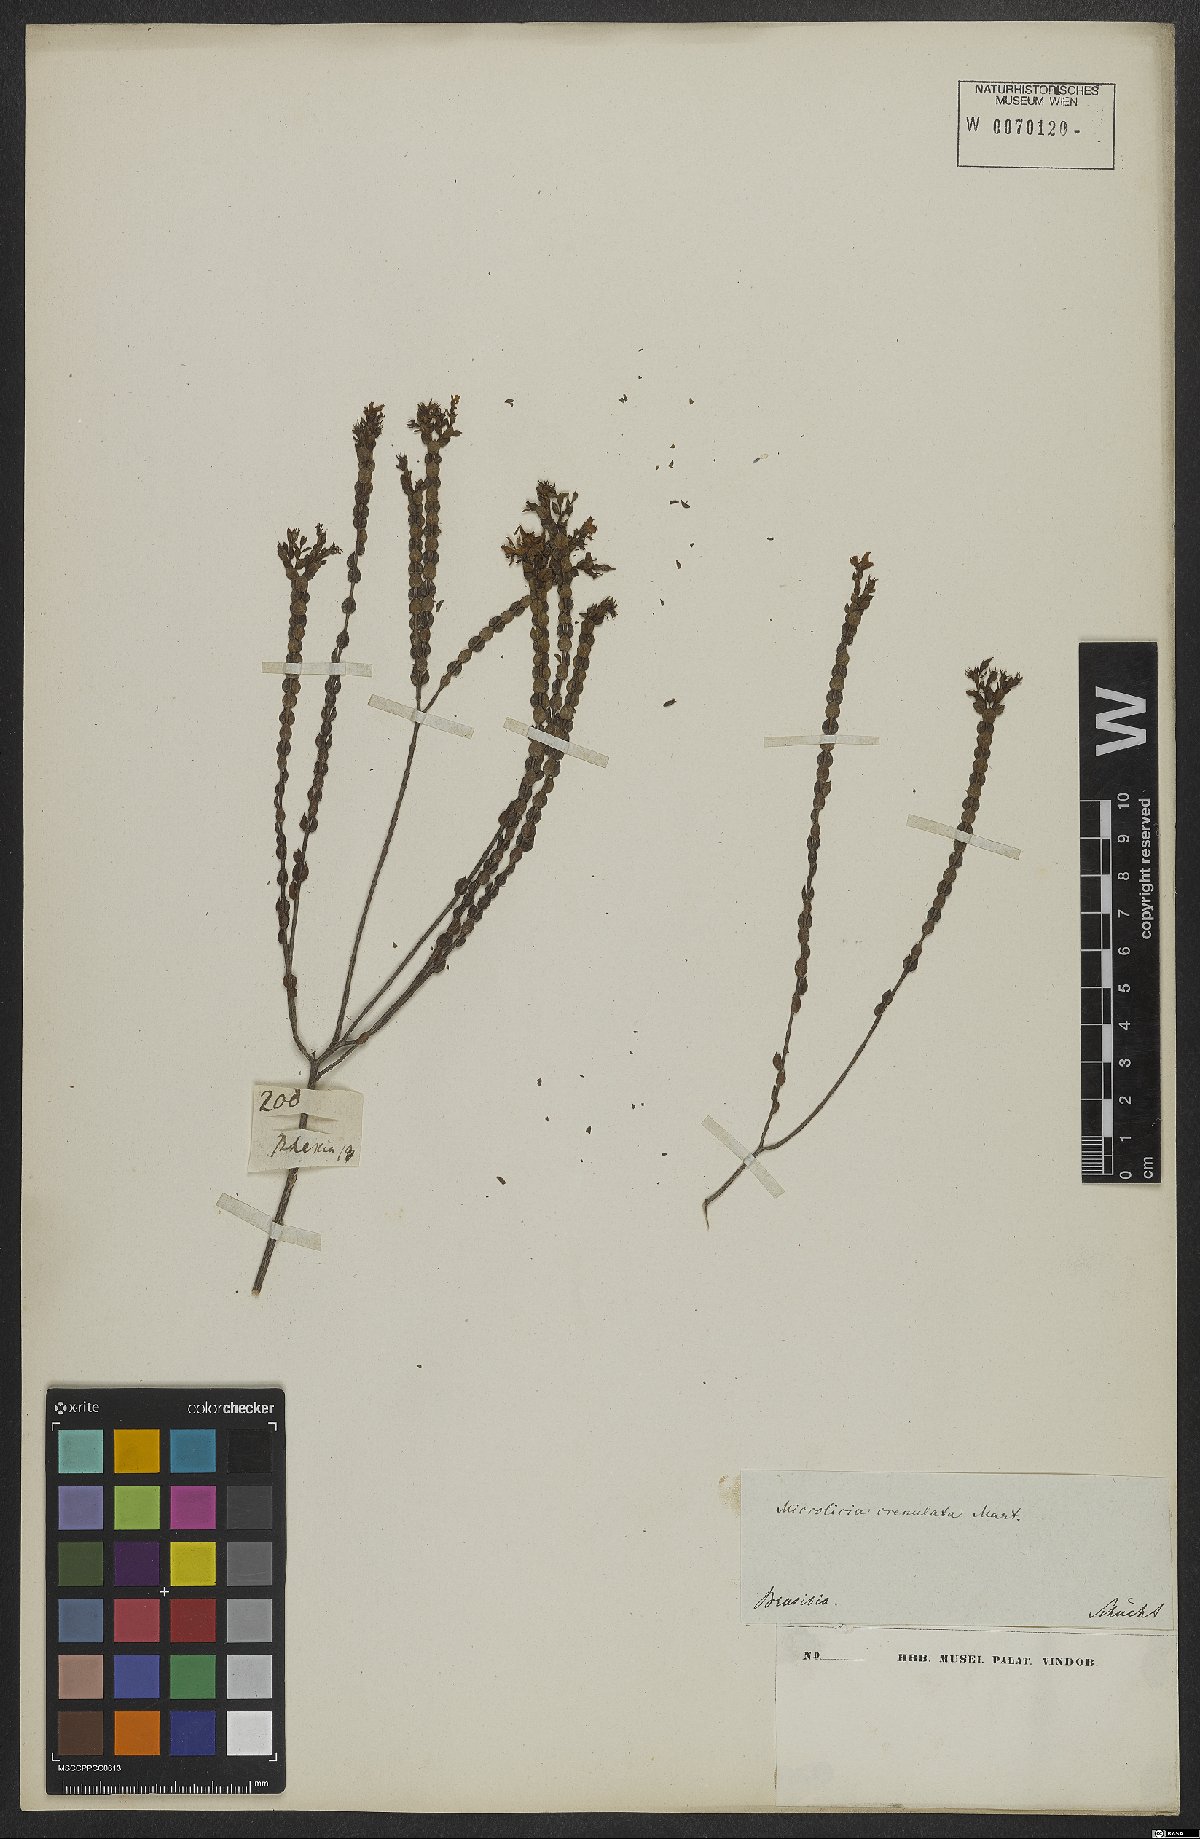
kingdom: Plantae
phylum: Tracheophyta
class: Magnoliopsida
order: Myrtales
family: Melastomataceae
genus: Microlicia
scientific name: Microlicia crenulata
